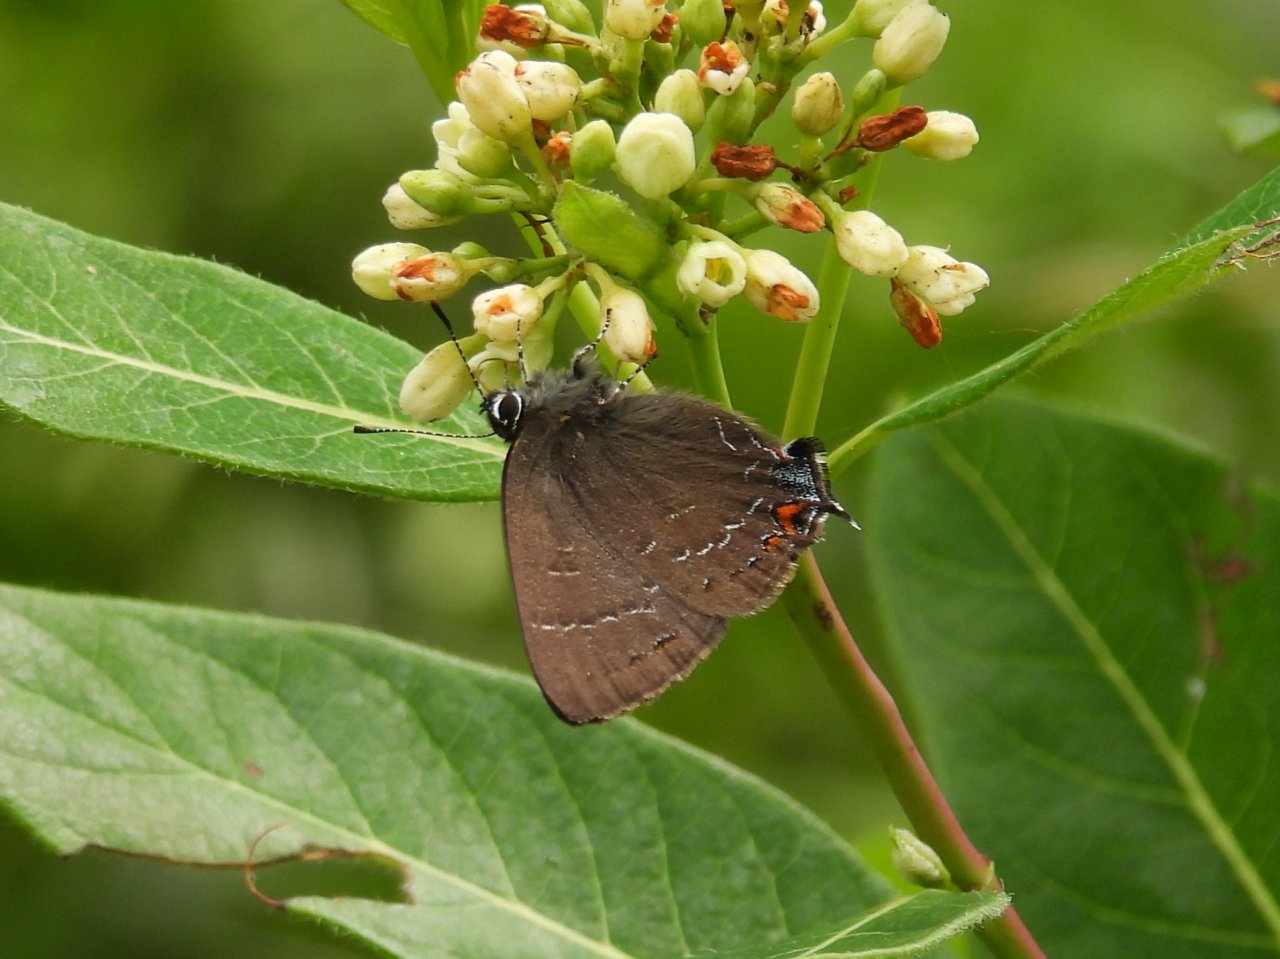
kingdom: Animalia
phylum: Arthropoda
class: Insecta
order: Lepidoptera
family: Lycaenidae
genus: Satyrium
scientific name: Satyrium calanus
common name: Banded Hairstreak
